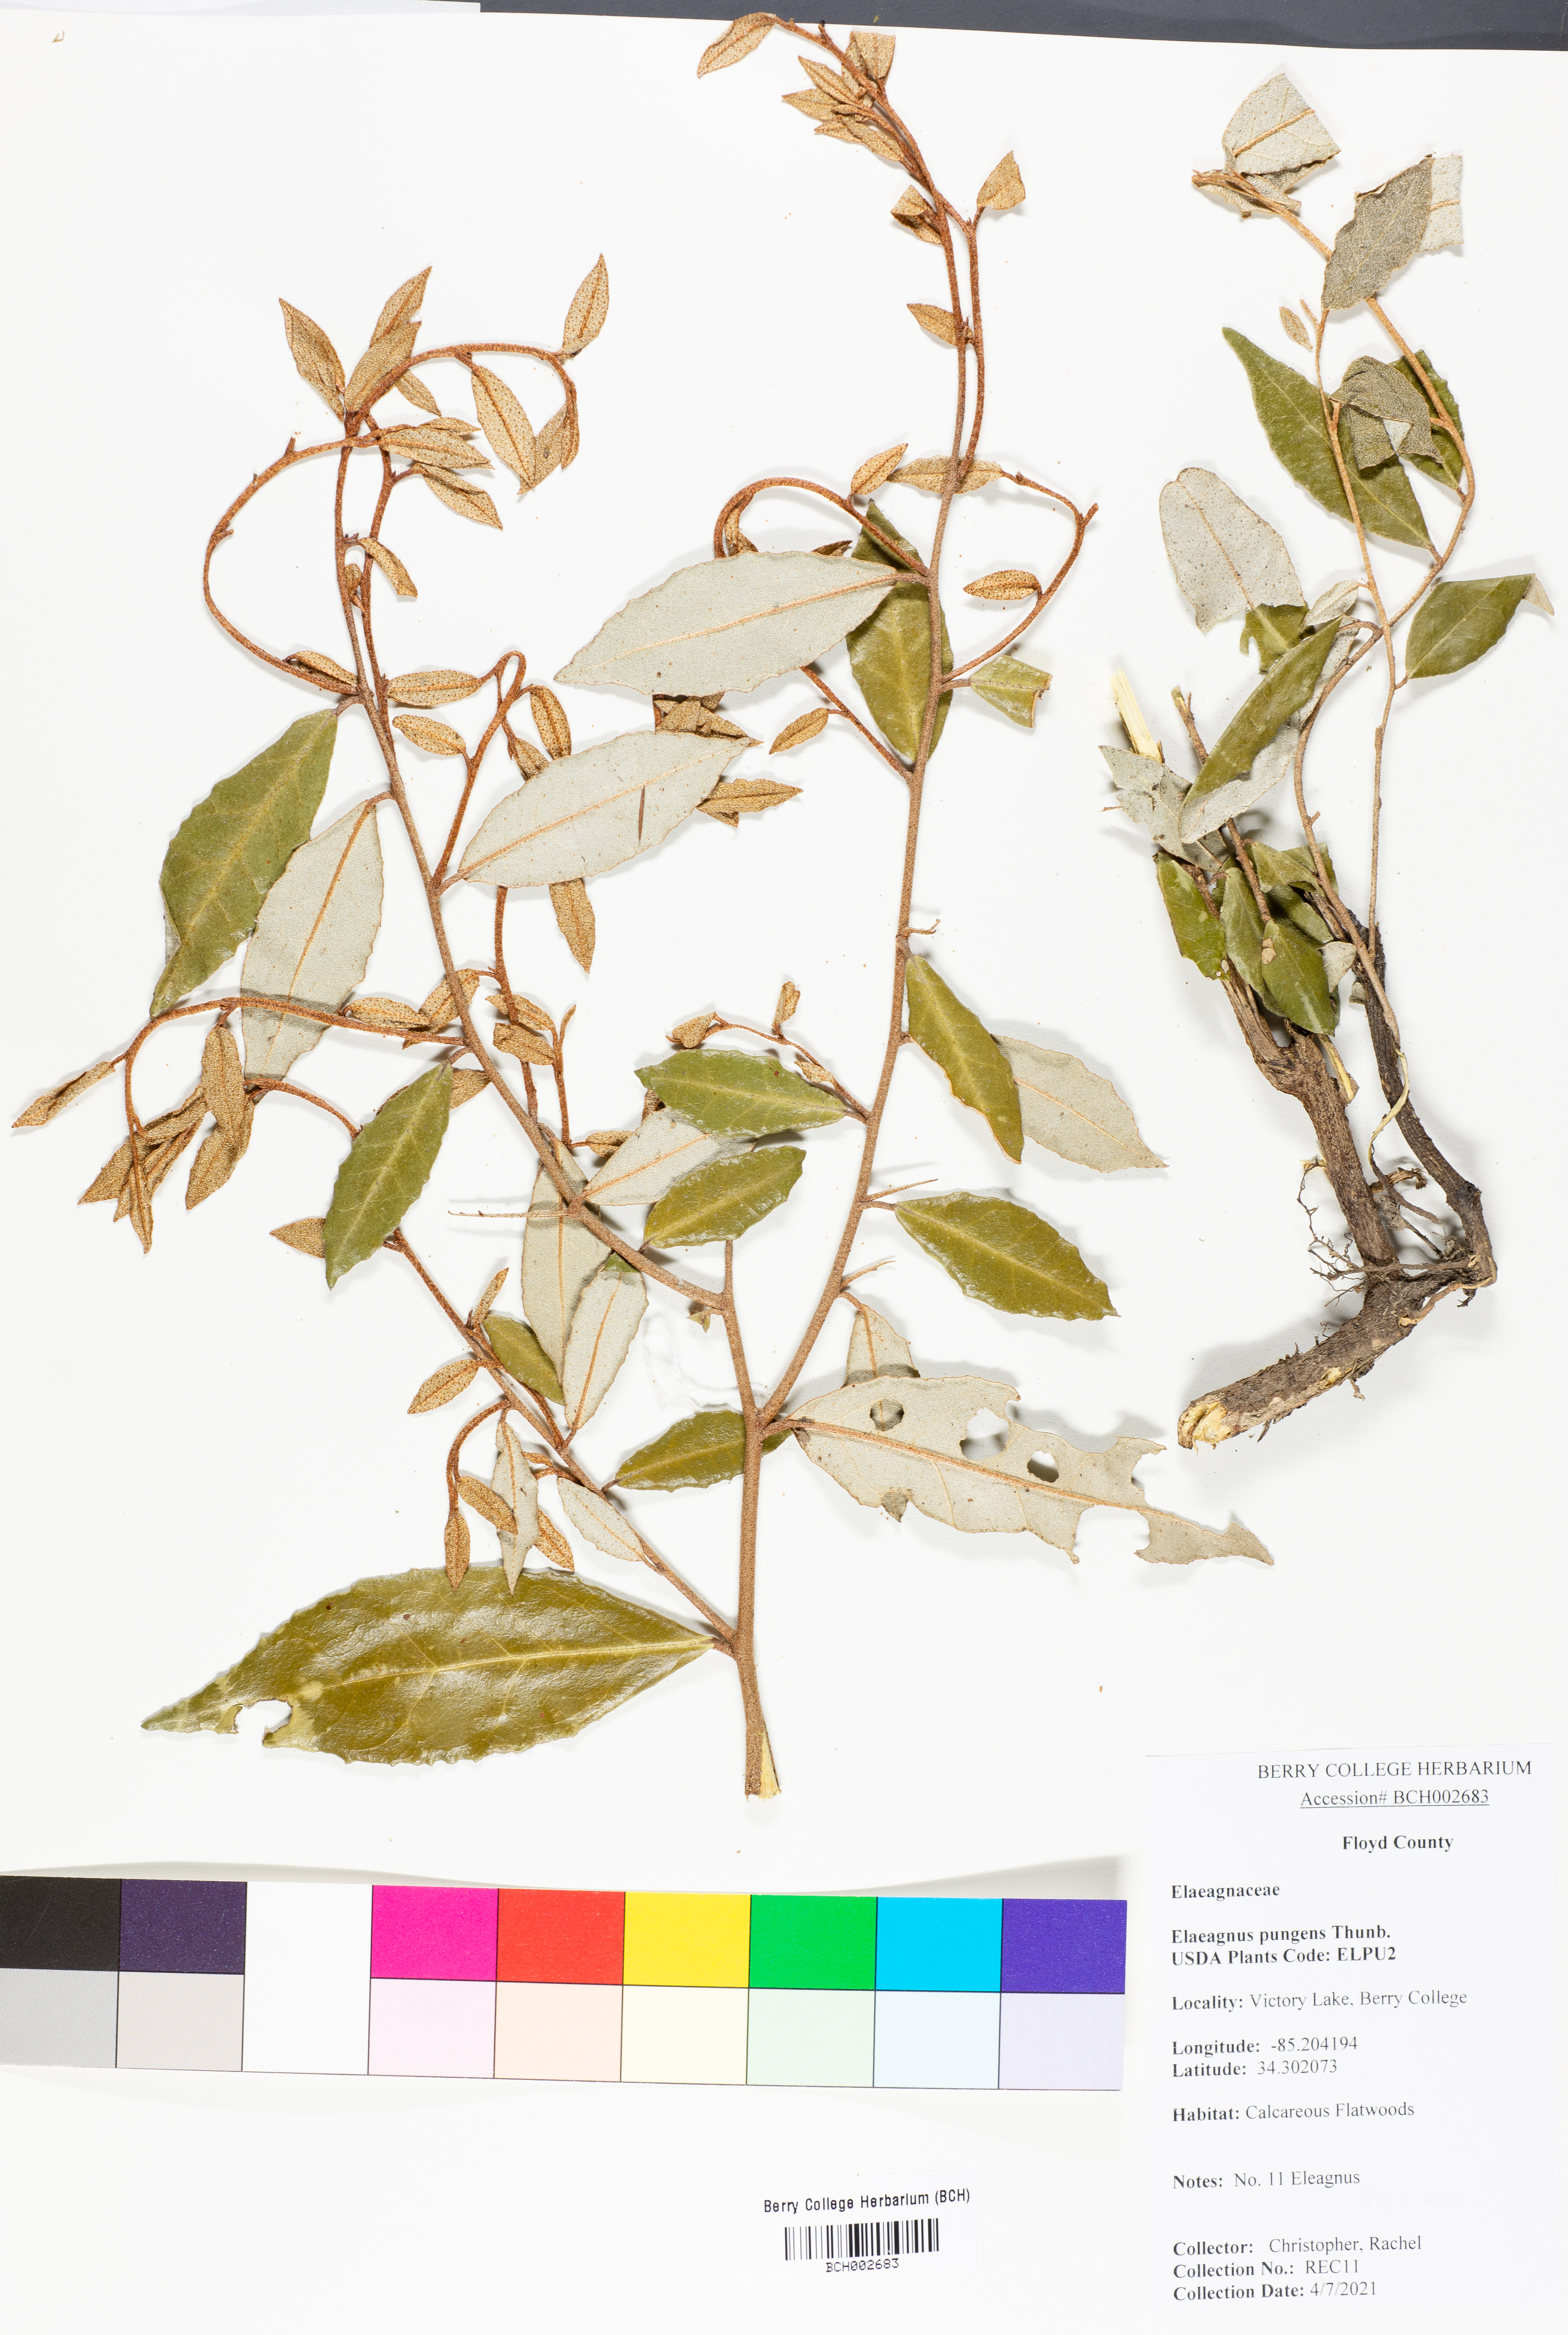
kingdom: Plantae
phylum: Tracheophyta
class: Magnoliopsida
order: Rosales
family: Elaeagnaceae
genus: Elaeagnus
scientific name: Elaeagnus pungens
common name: Spiny oleaster
